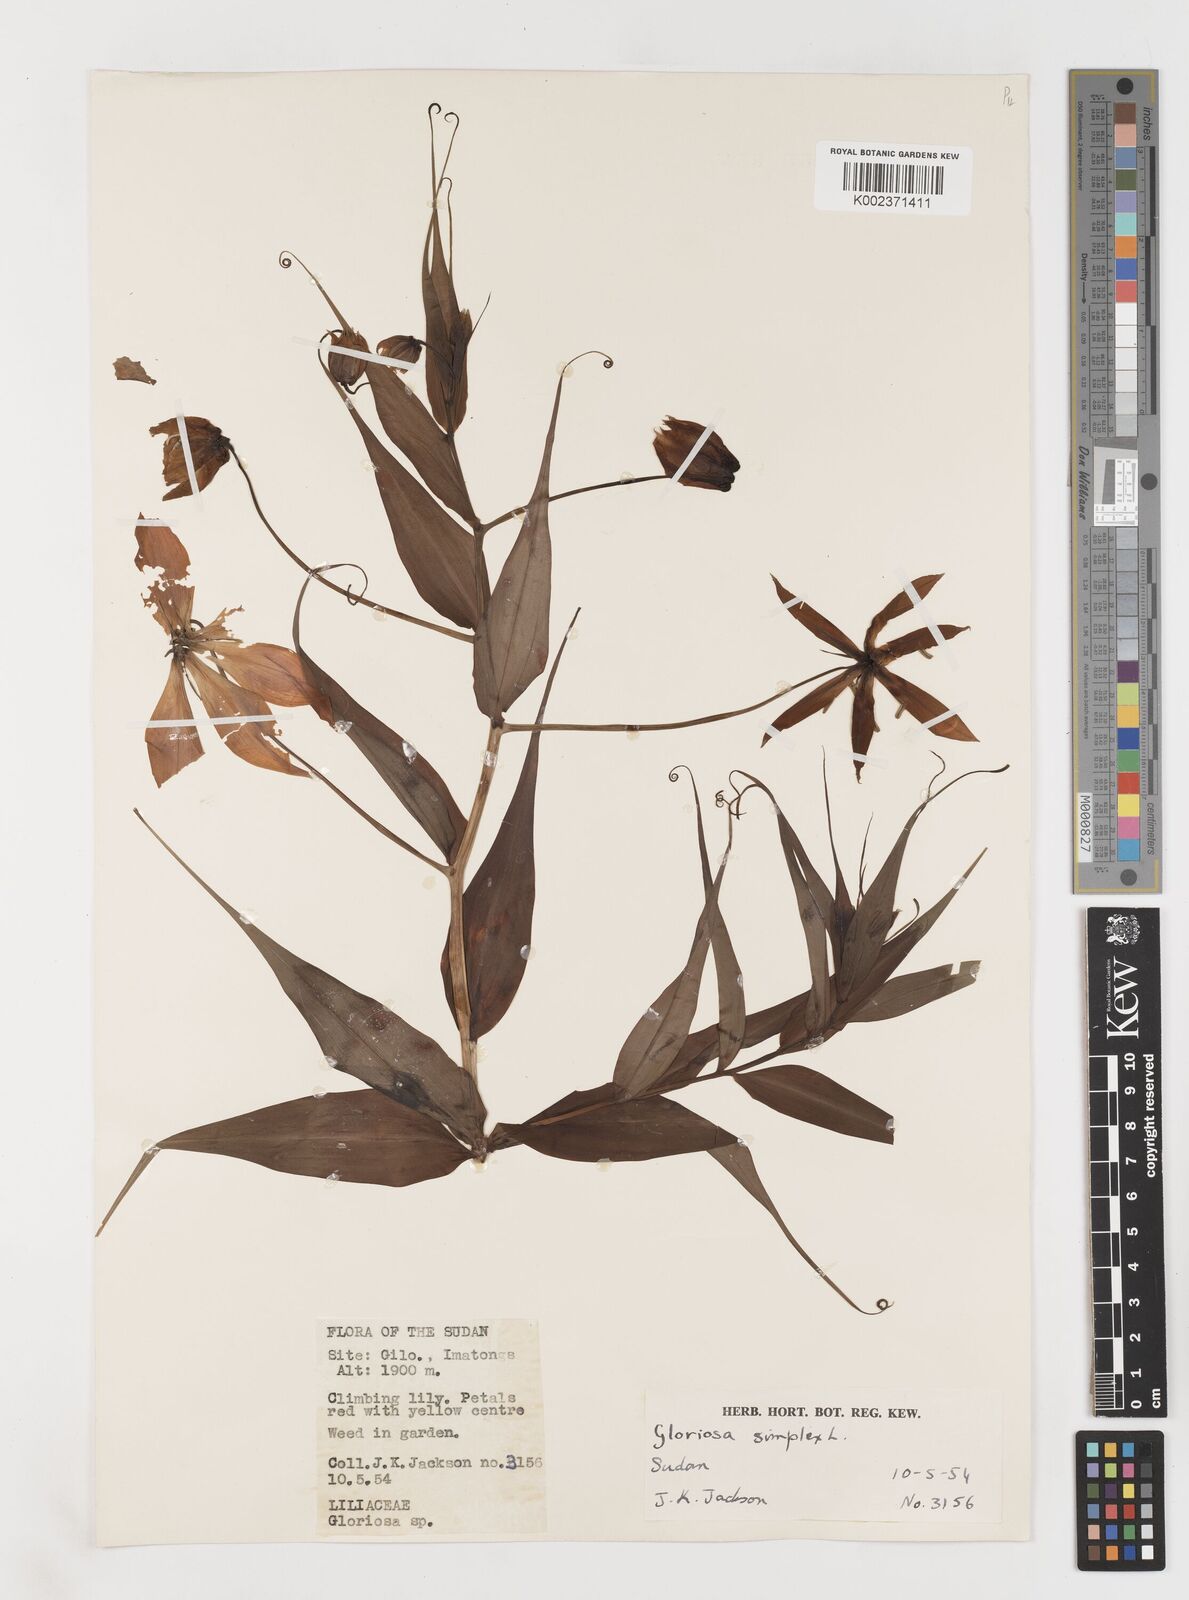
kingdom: Plantae
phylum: Tracheophyta
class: Liliopsida
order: Liliales
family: Colchicaceae
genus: Gloriosa
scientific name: Gloriosa simplex
